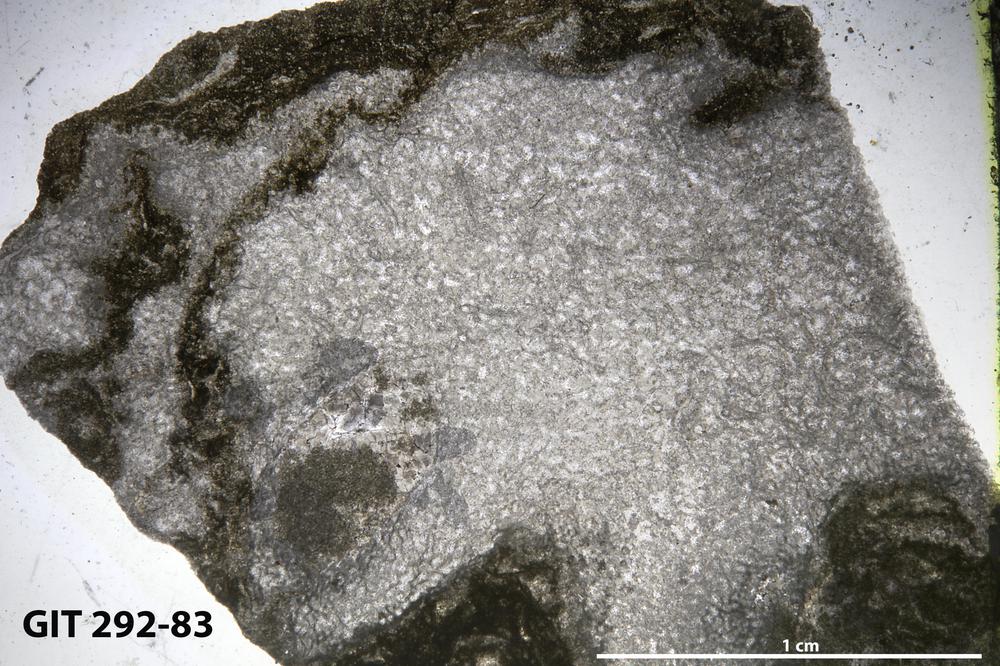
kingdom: Animalia
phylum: Porifera
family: Ecclimadictyidae
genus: Ecclimadictyon
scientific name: Ecclimadictyon
